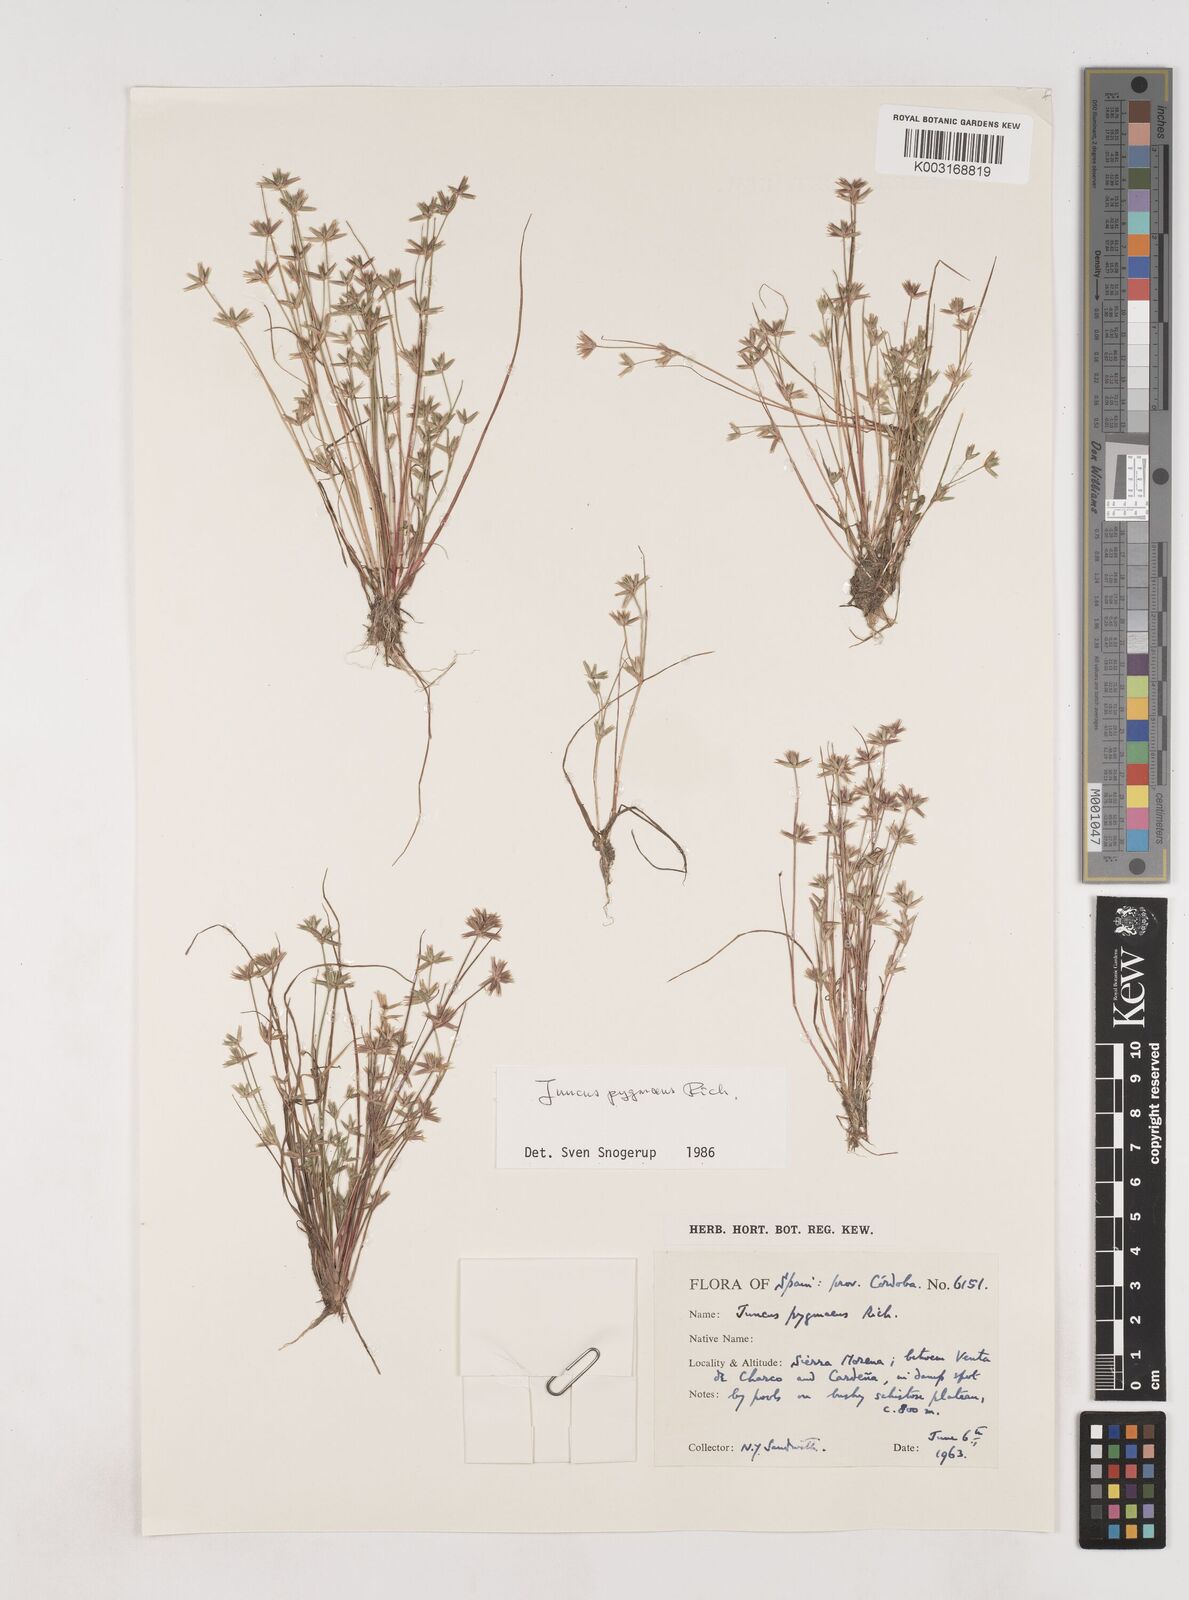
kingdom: Plantae
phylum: Tracheophyta
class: Liliopsida
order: Poales
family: Juncaceae
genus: Juncus
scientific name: Juncus pygmaeus
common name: Pigmy rush
